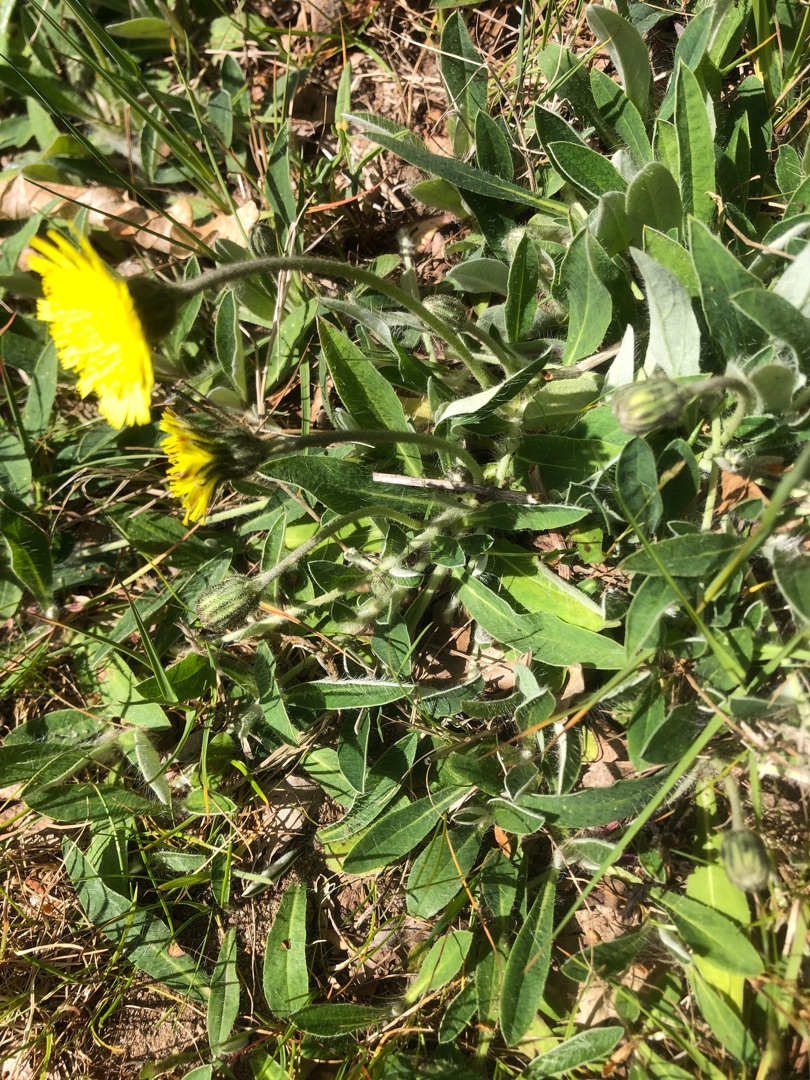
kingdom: Plantae
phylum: Tracheophyta
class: Magnoliopsida
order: Asterales
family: Asteraceae
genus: Pilosella
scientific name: Pilosella officinarum
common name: Håret høgeurt
